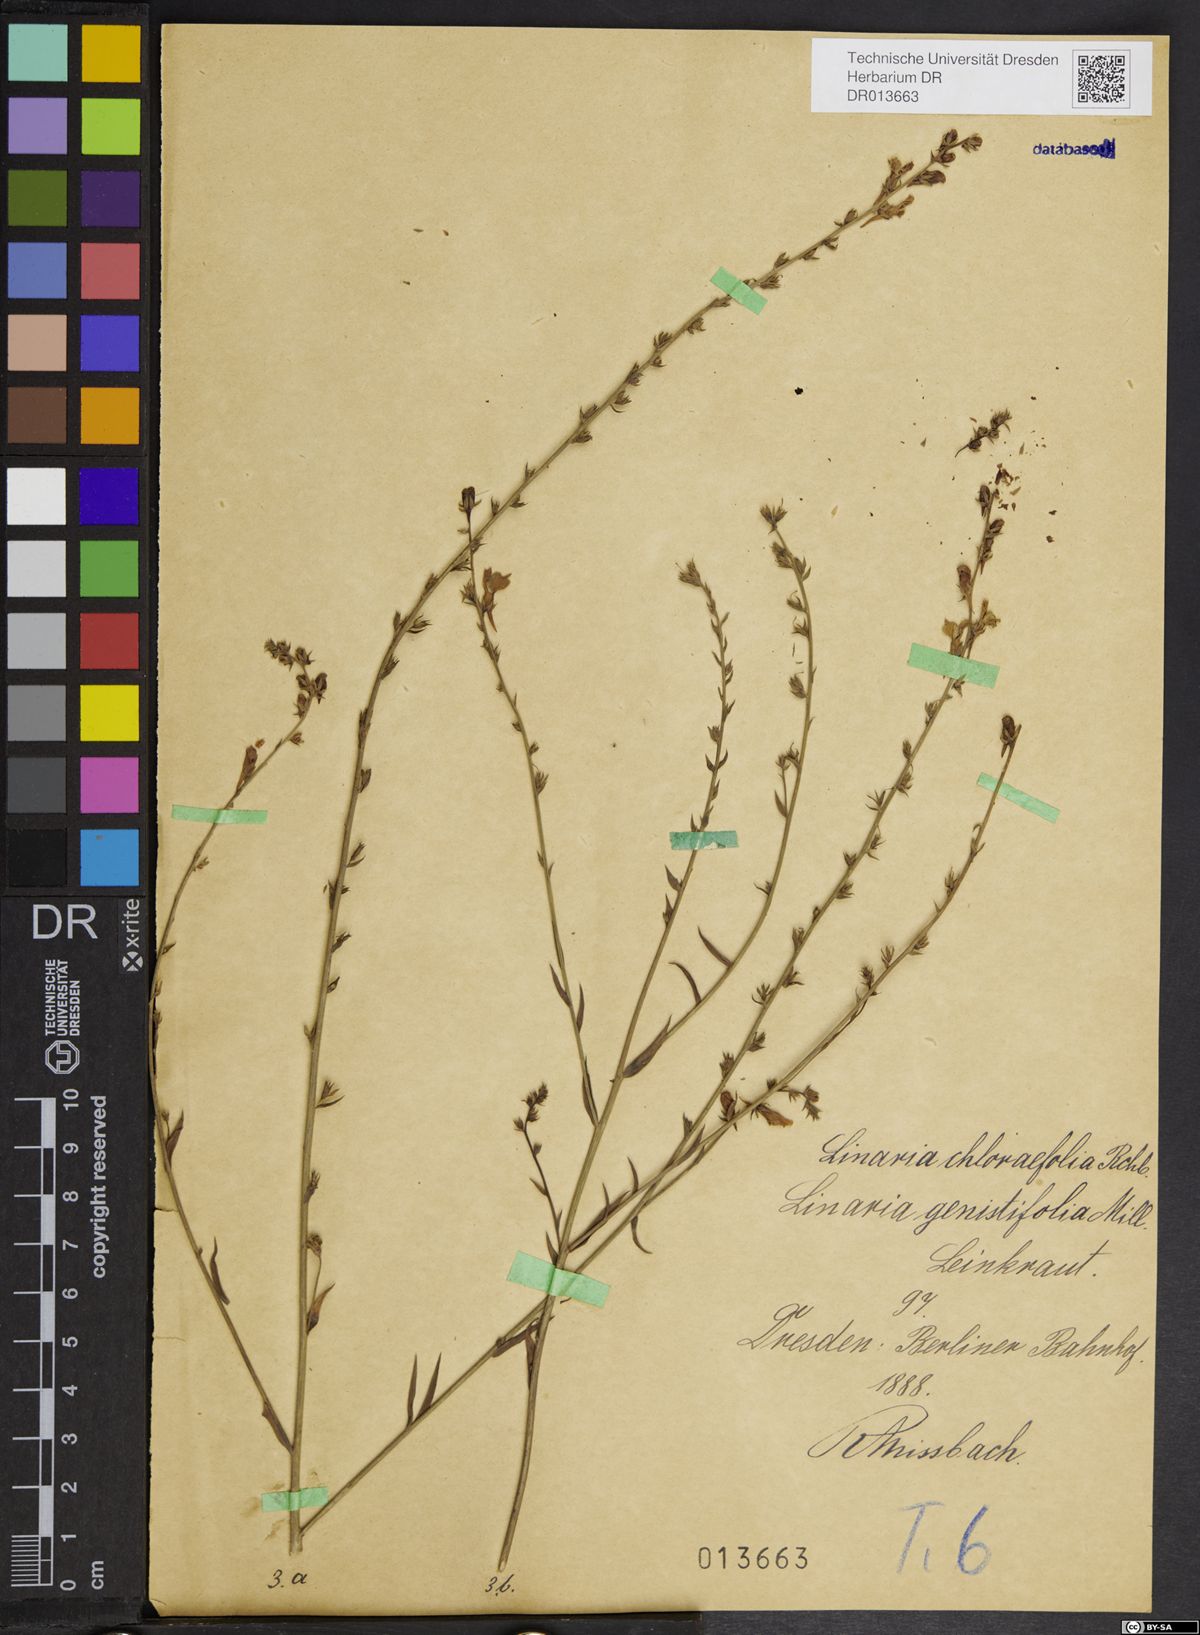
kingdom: Plantae
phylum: Tracheophyta
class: Magnoliopsida
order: Lamiales
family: Plantaginaceae
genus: Linaria
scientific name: Linaria genistifolia
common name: Broomleaf toadflax
